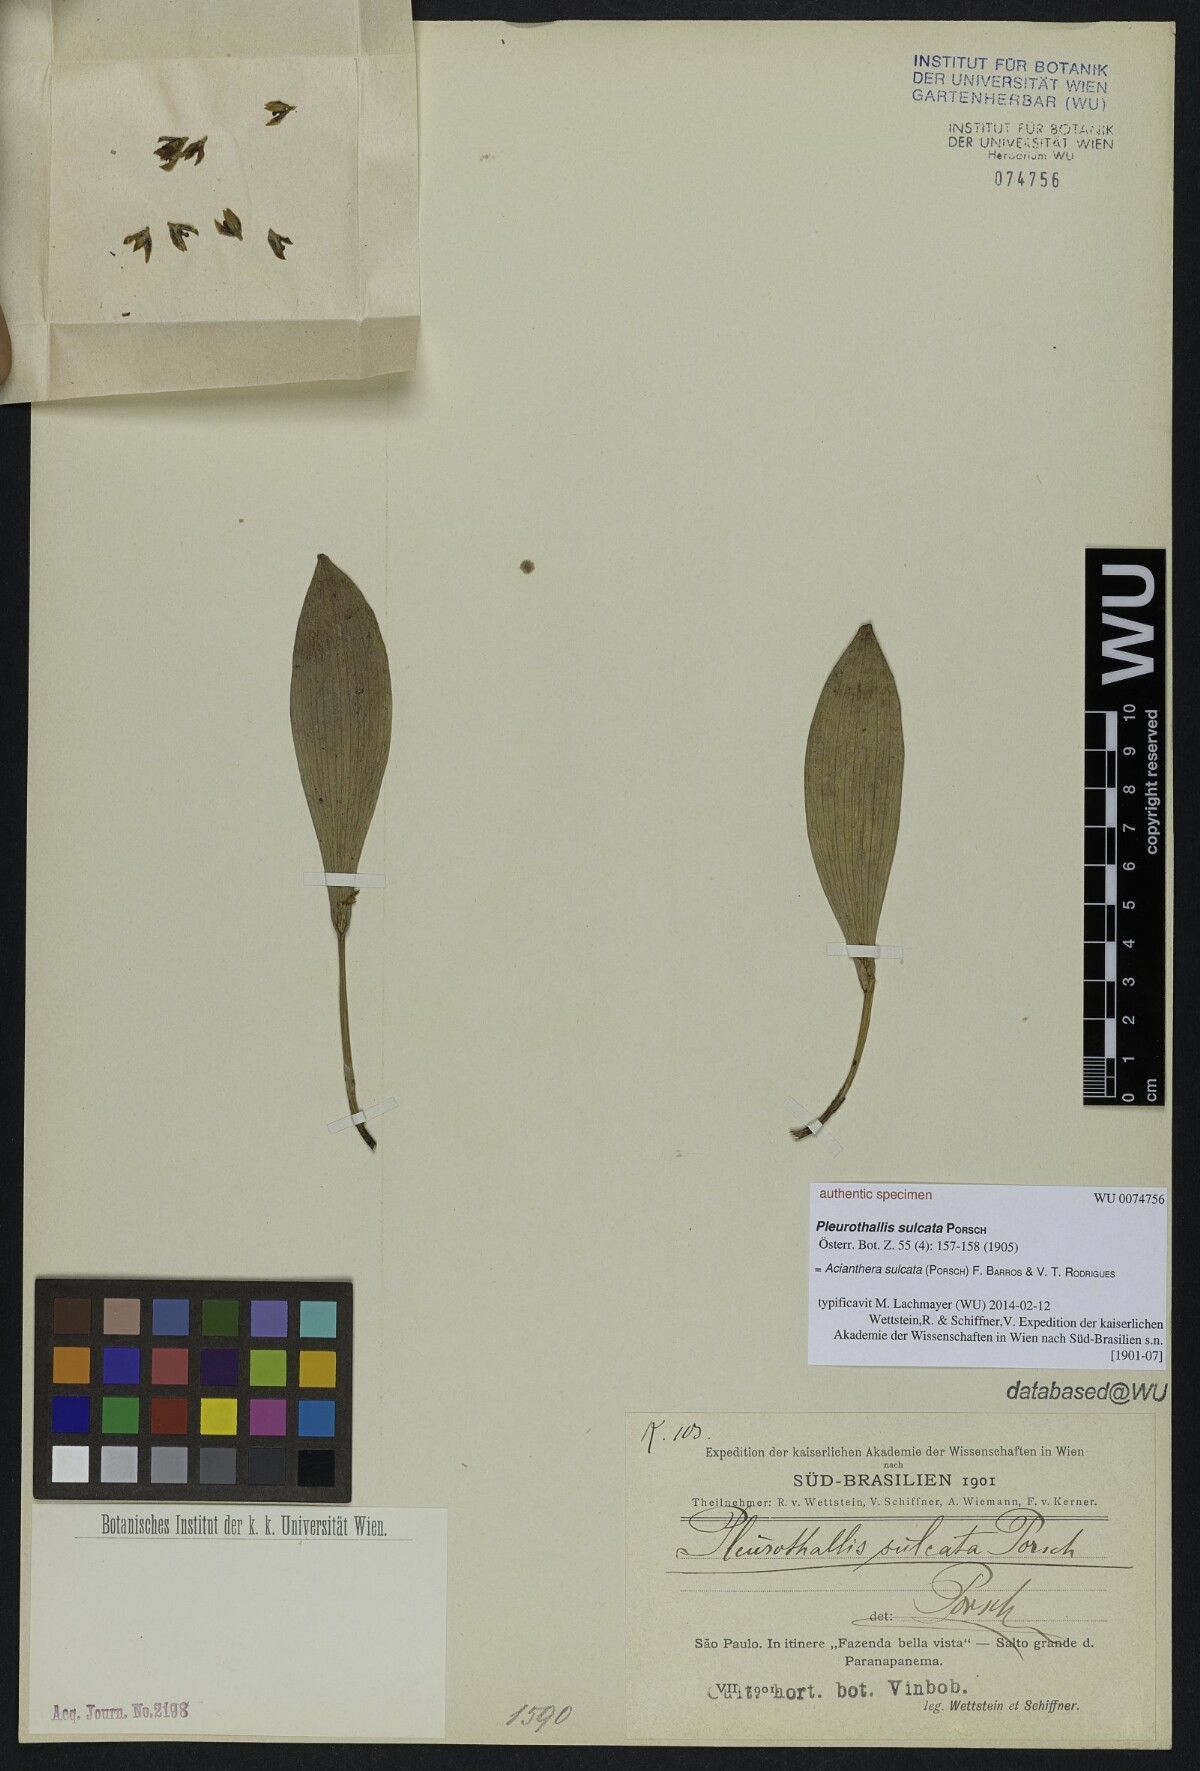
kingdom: Plantae
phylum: Tracheophyta
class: Liliopsida
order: Asparagales
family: Orchidaceae
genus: Acianthera
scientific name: Acianthera sulcata
